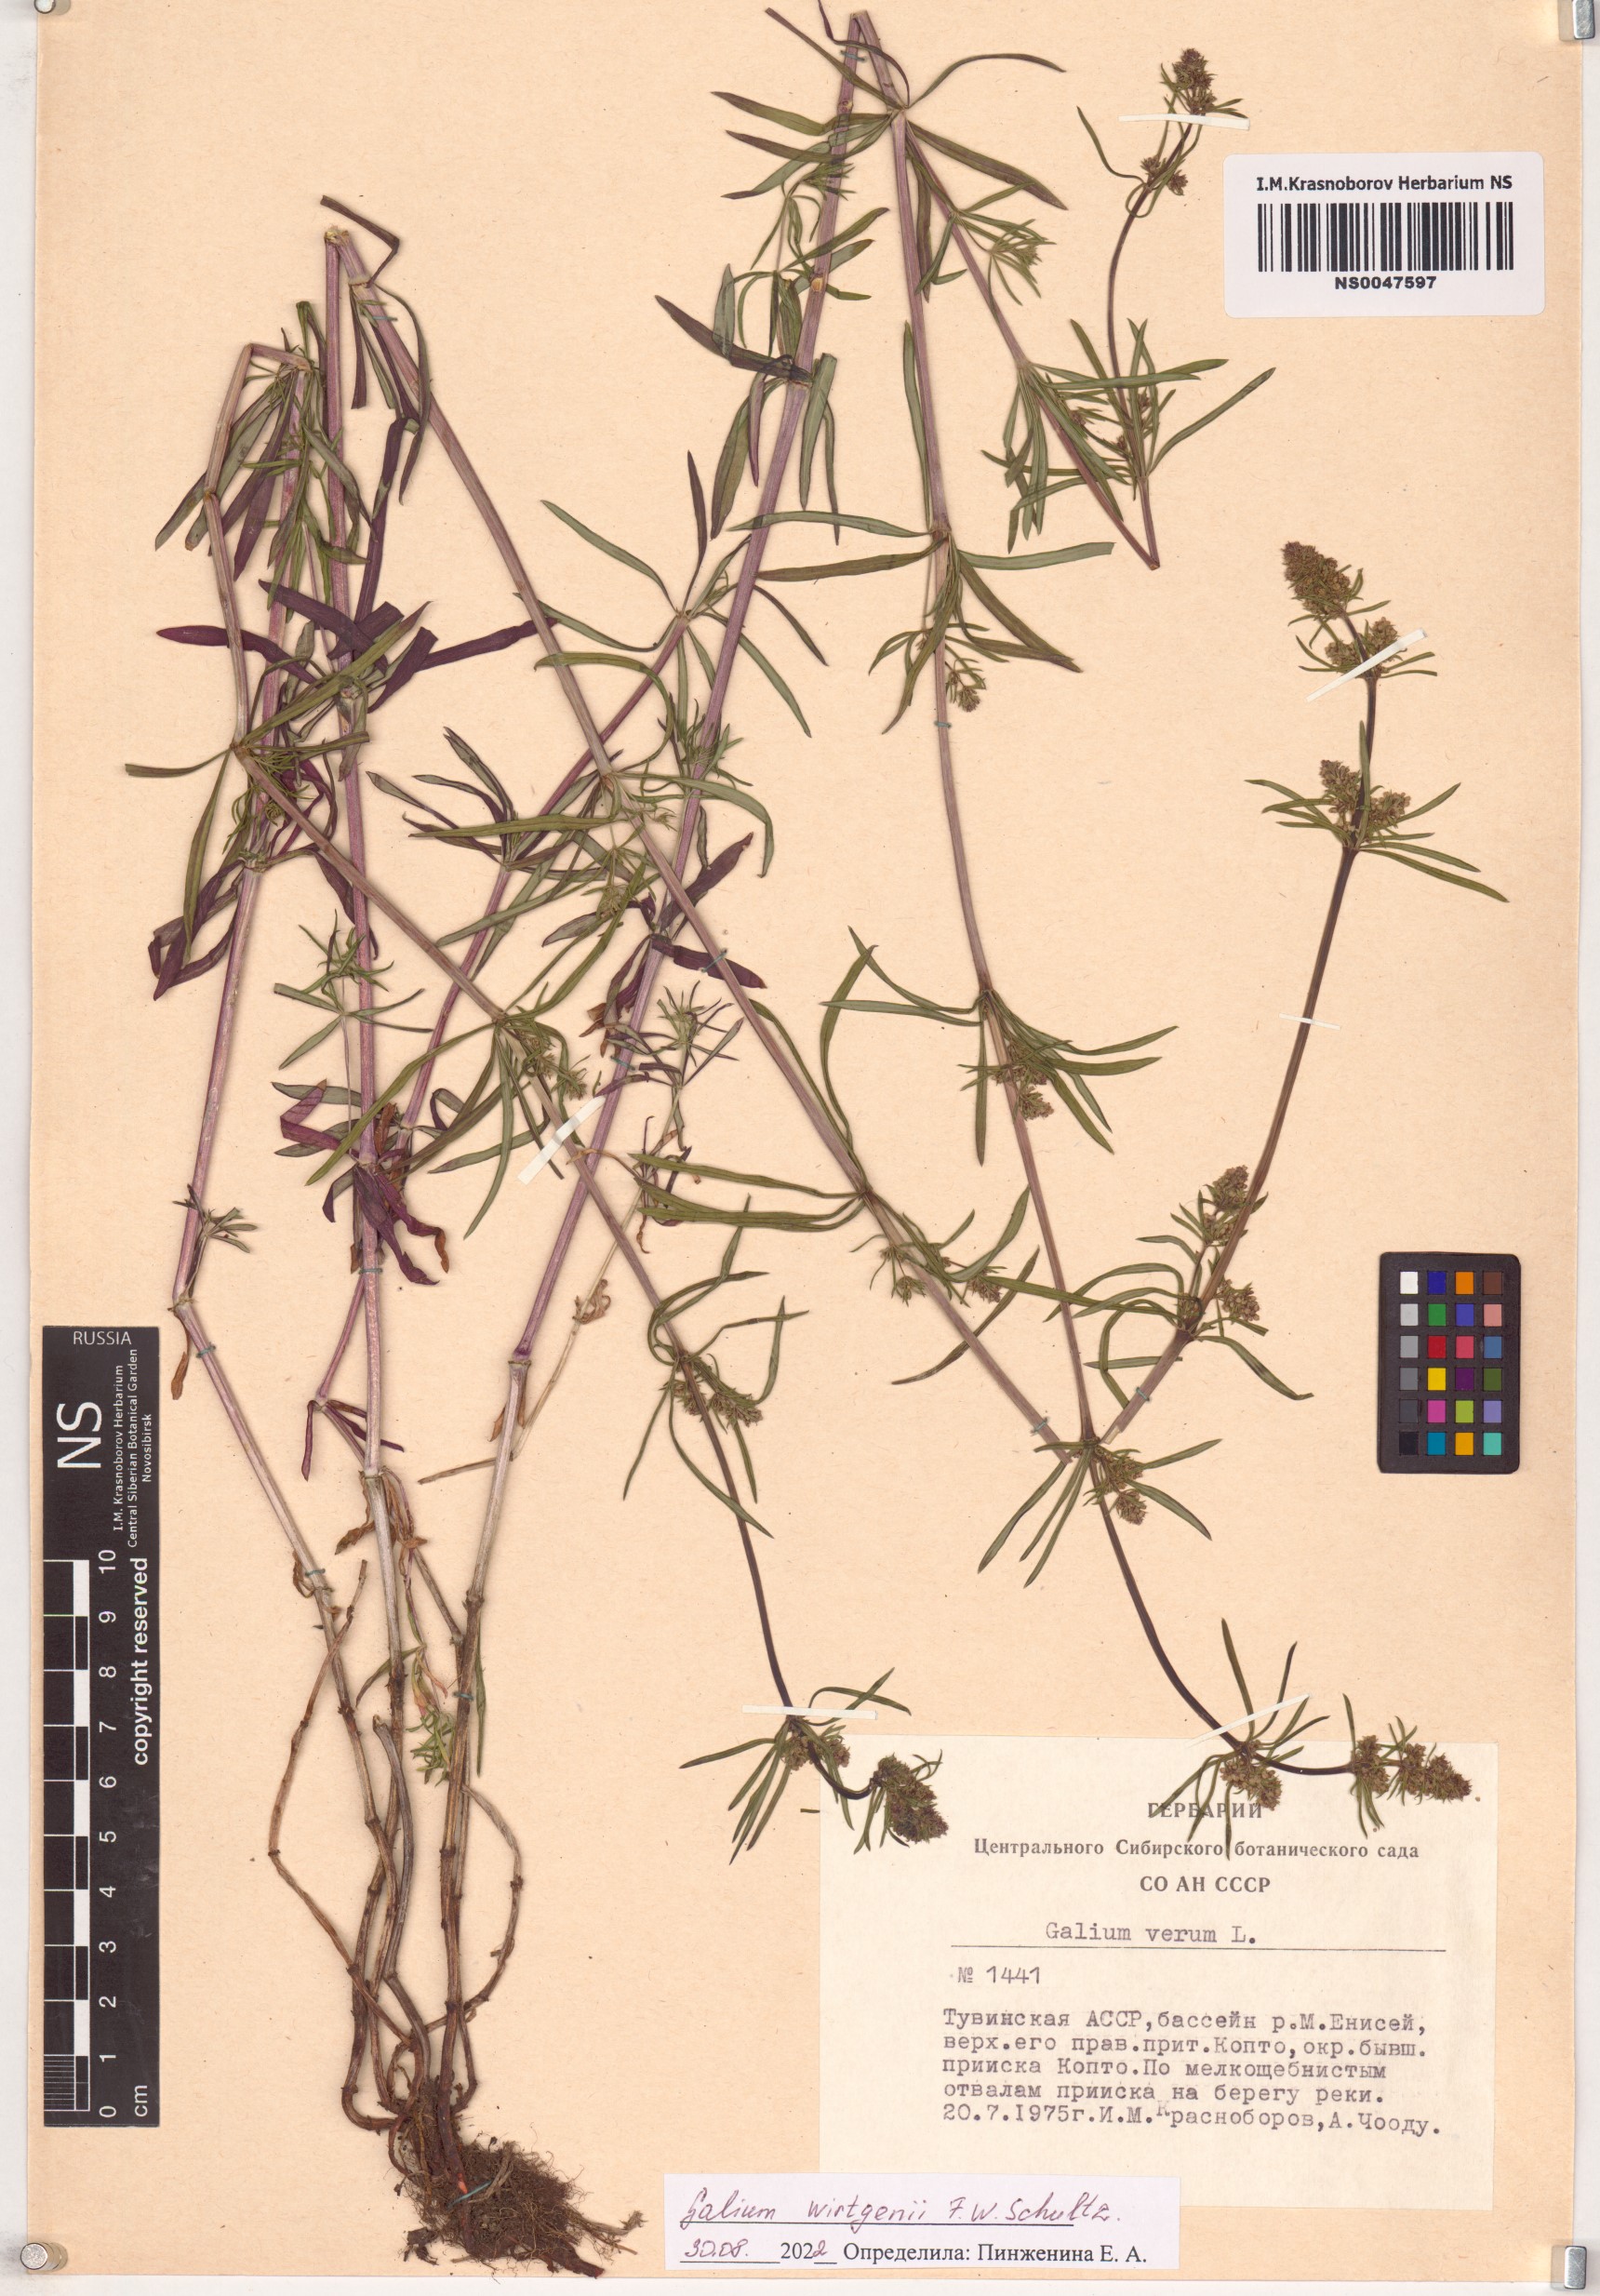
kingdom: Plantae
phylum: Tracheophyta
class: Magnoliopsida
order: Gentianales
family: Rubiaceae
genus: Galium
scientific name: Galium verum
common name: Lady's bedstraw
